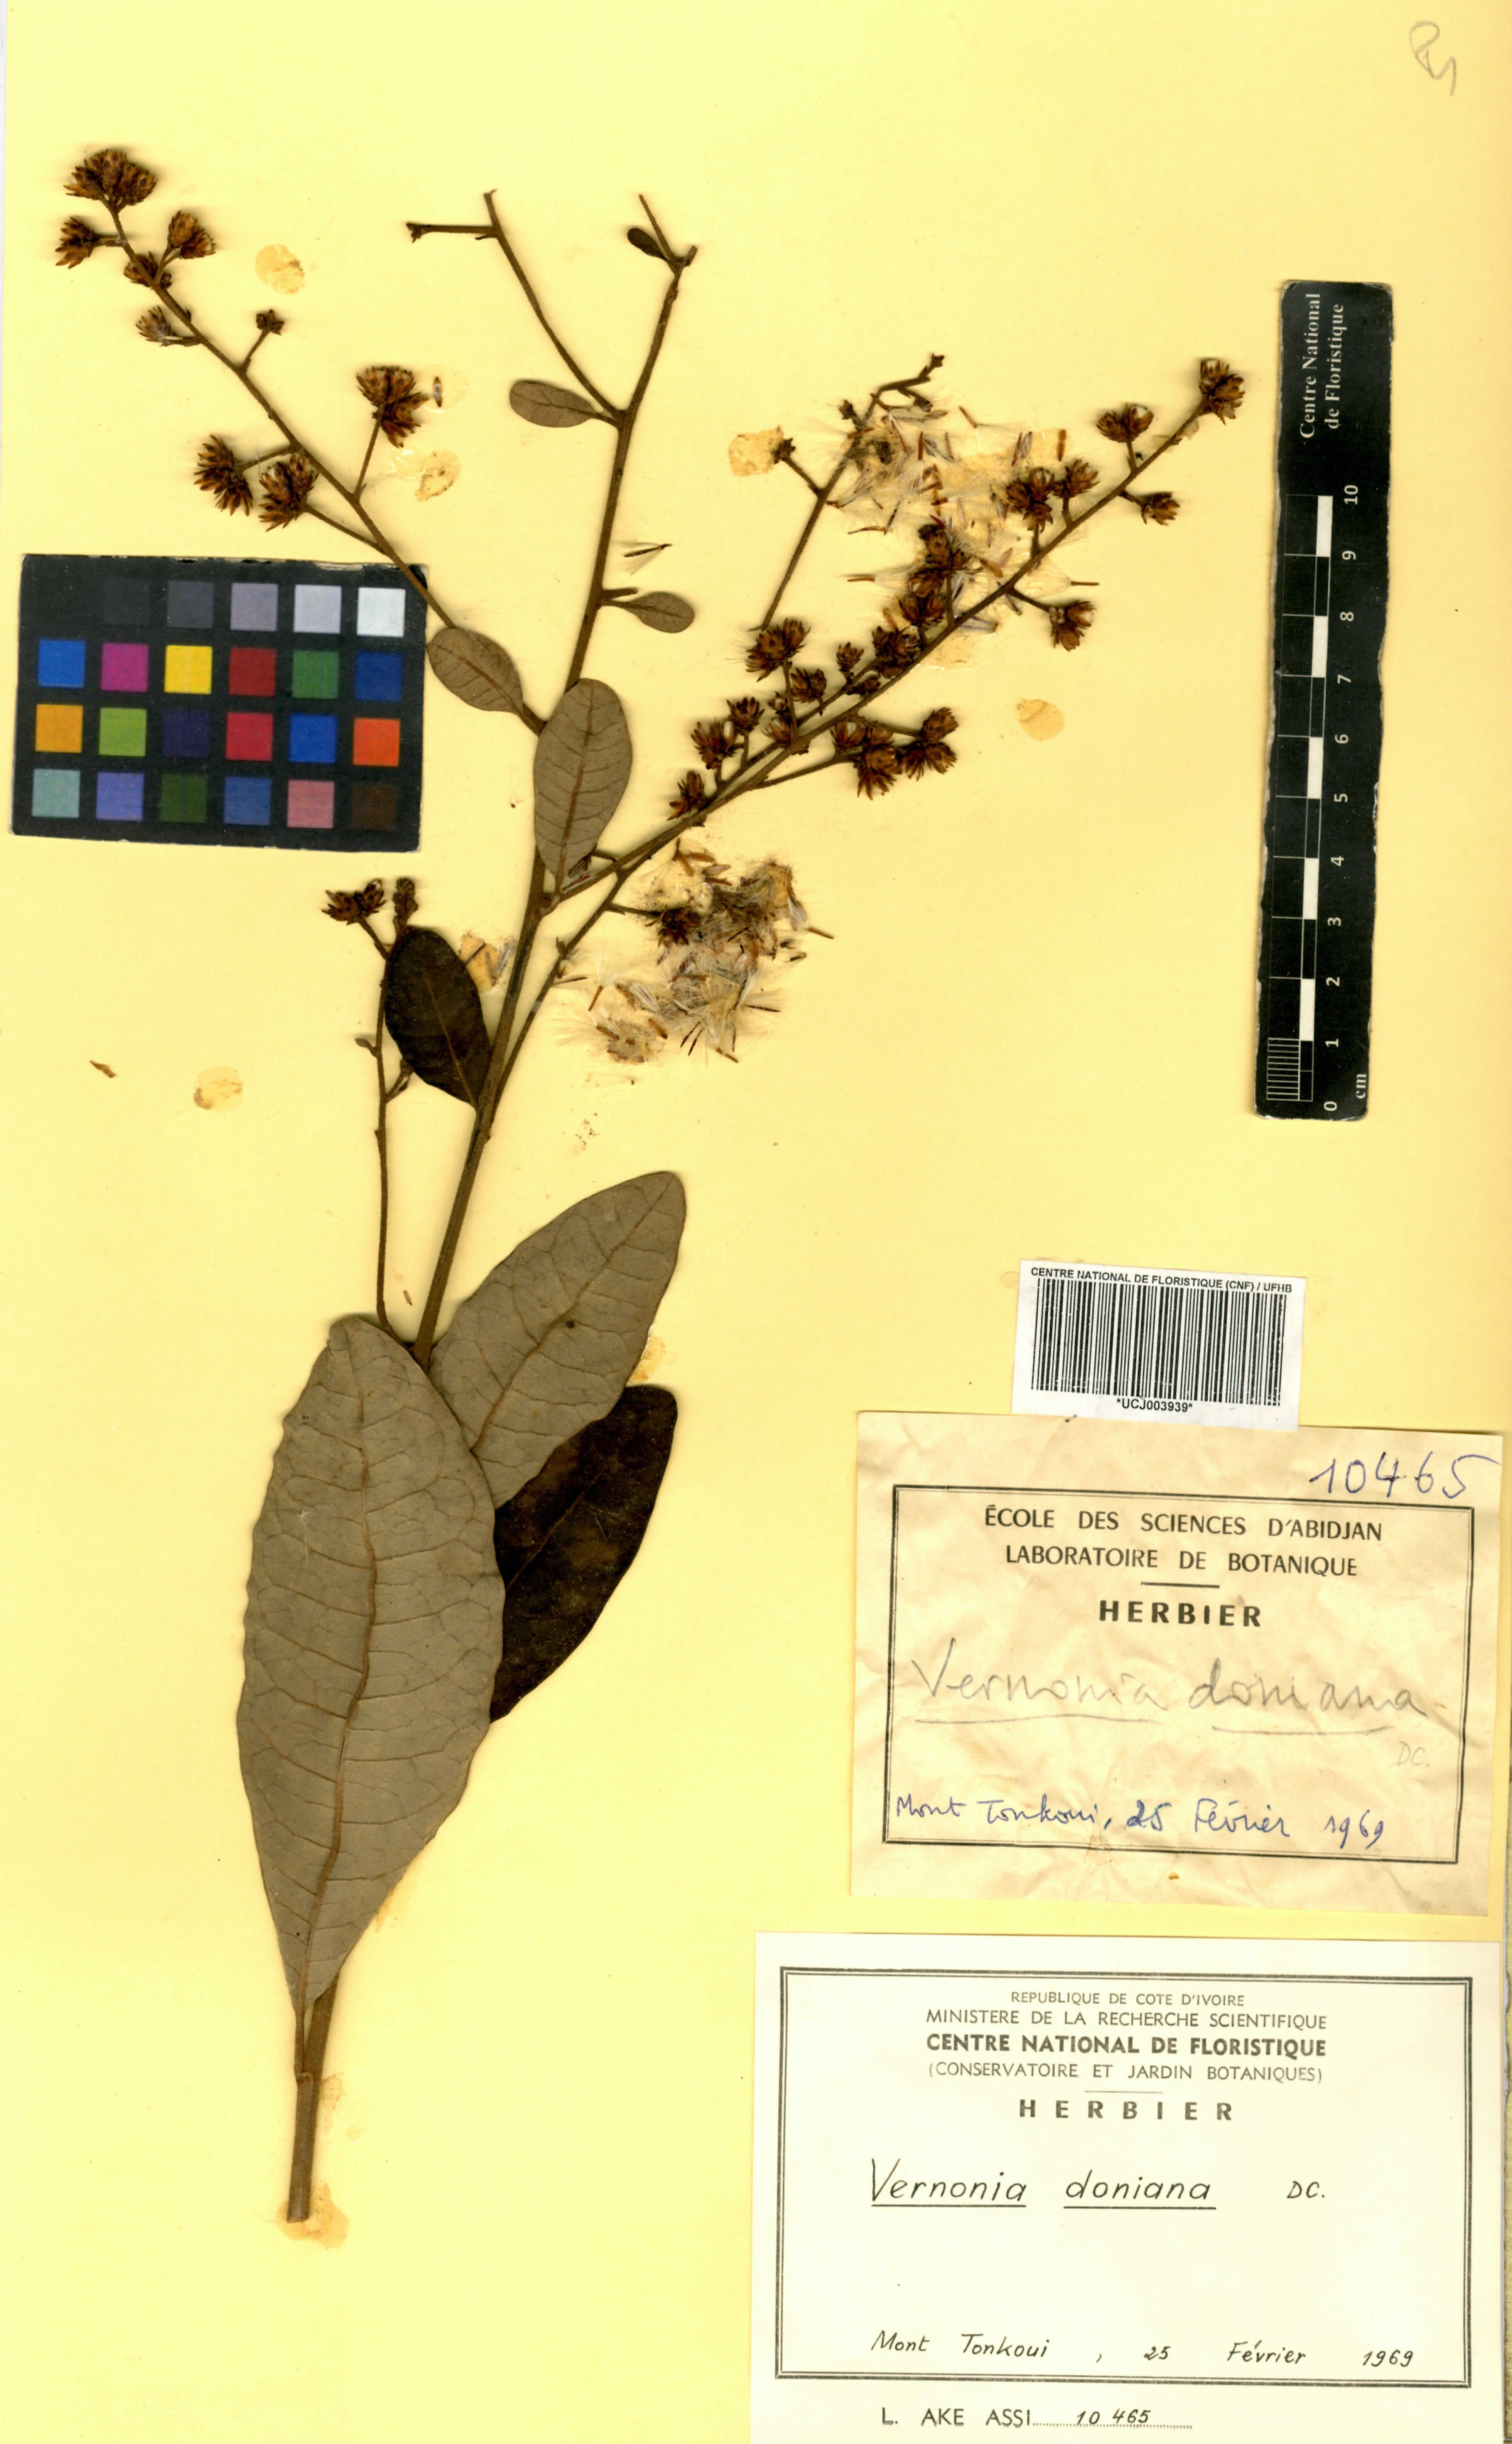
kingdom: Plantae
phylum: Tracheophyta
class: Magnoliopsida
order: Asterales
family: Asteraceae
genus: Brenandendron
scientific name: Brenandendron donianum
